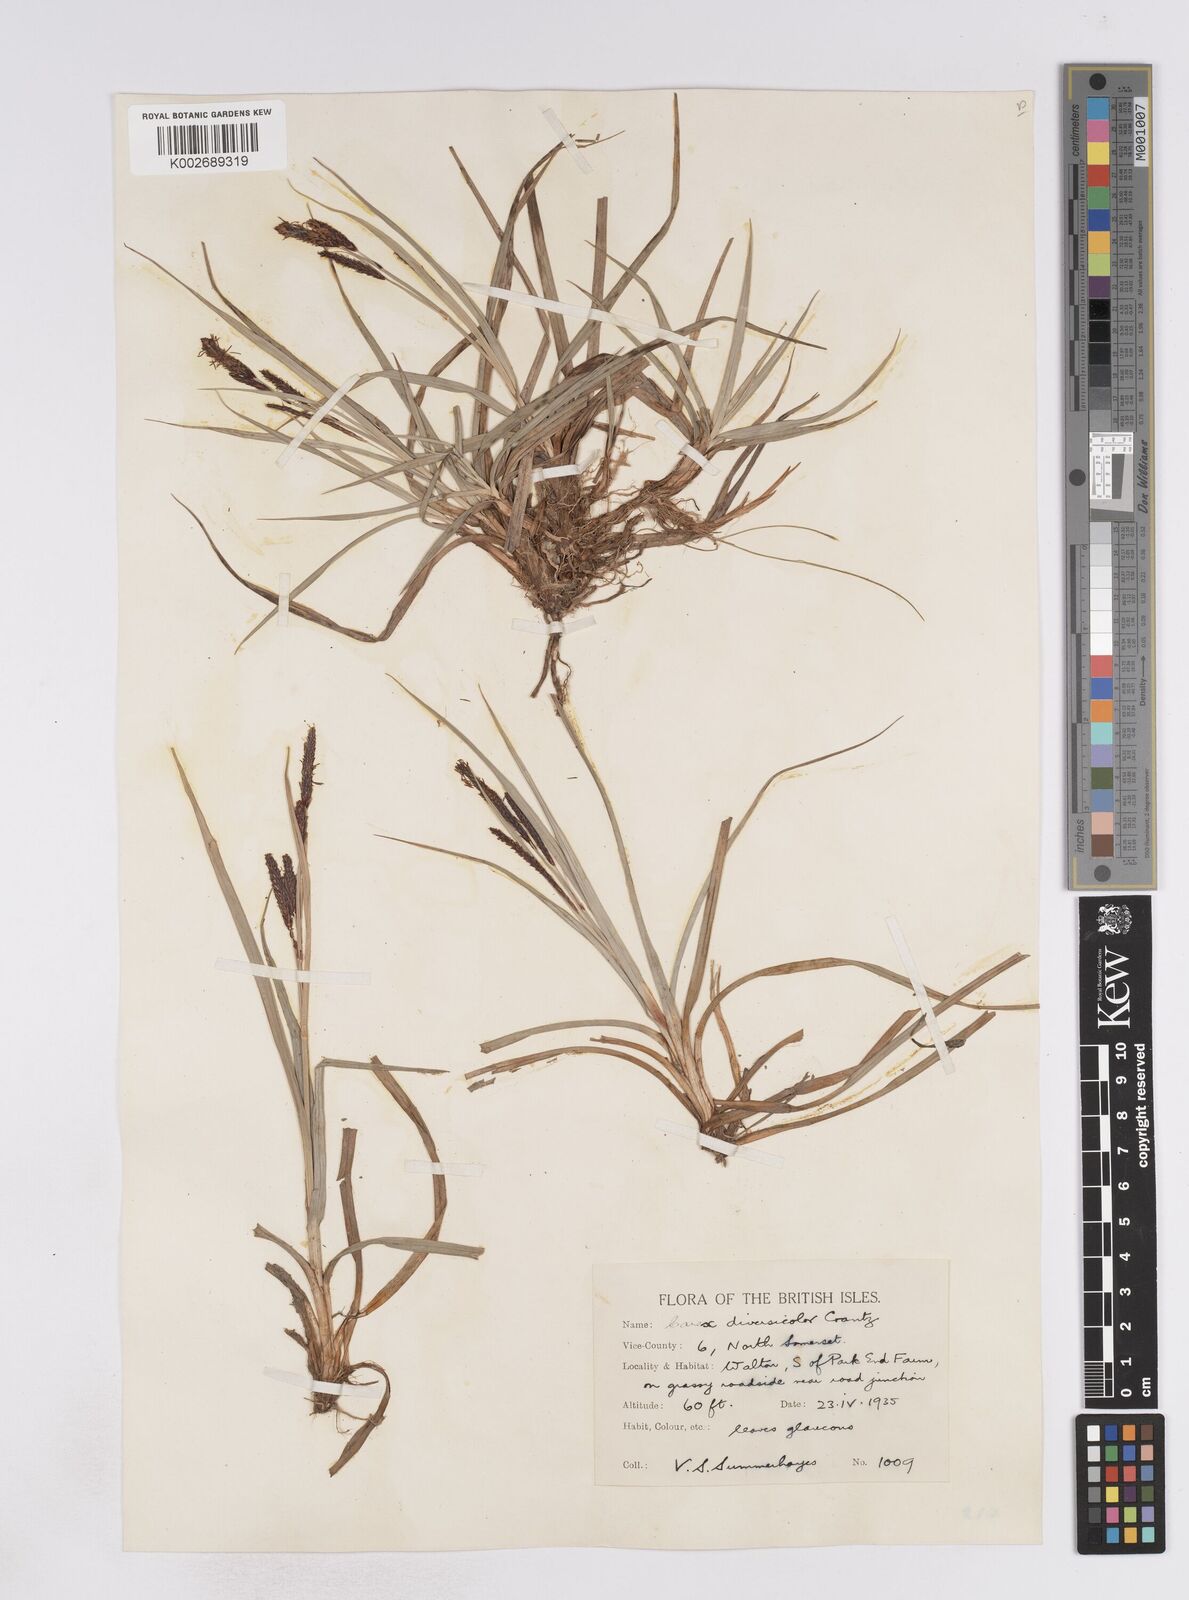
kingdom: Plantae
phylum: Tracheophyta
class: Liliopsida
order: Poales
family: Cyperaceae
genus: Carex
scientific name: Carex flacca
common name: Glaucous sedge
